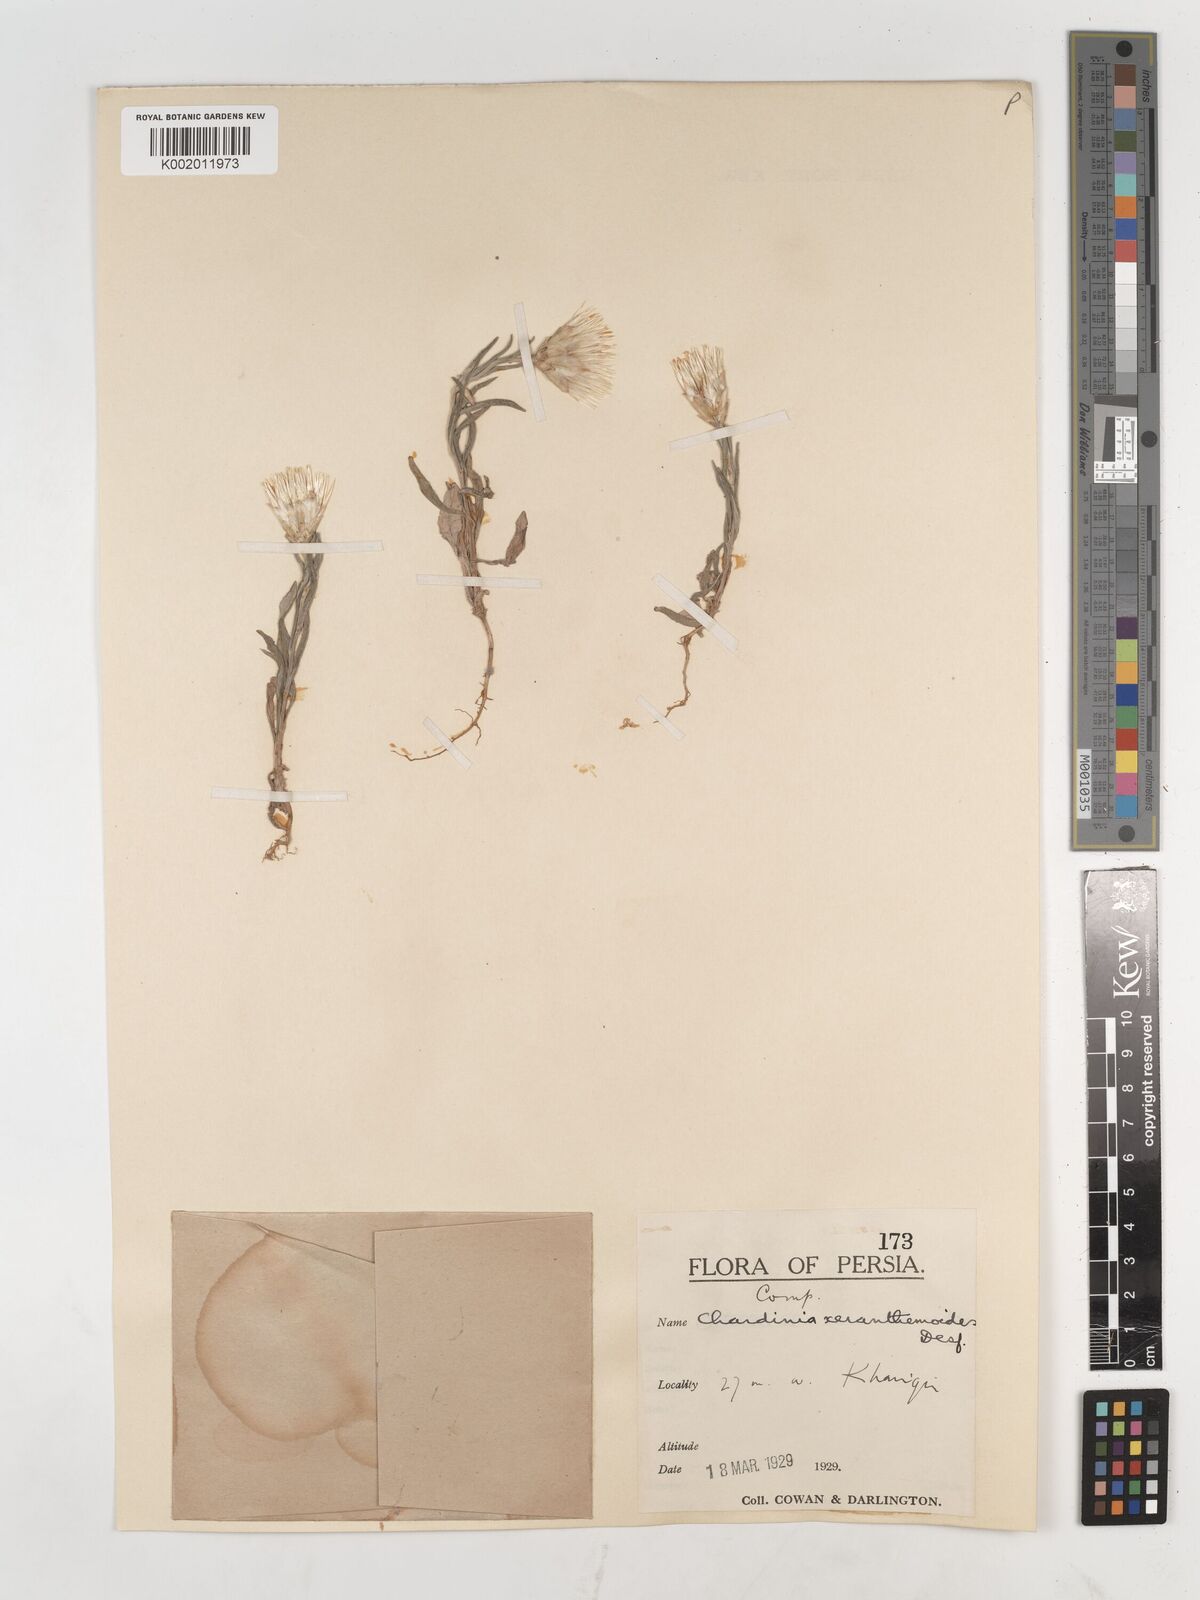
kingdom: Plantae
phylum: Tracheophyta
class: Magnoliopsida
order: Asterales
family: Asteraceae
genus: Chardinia
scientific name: Chardinia orientalis
